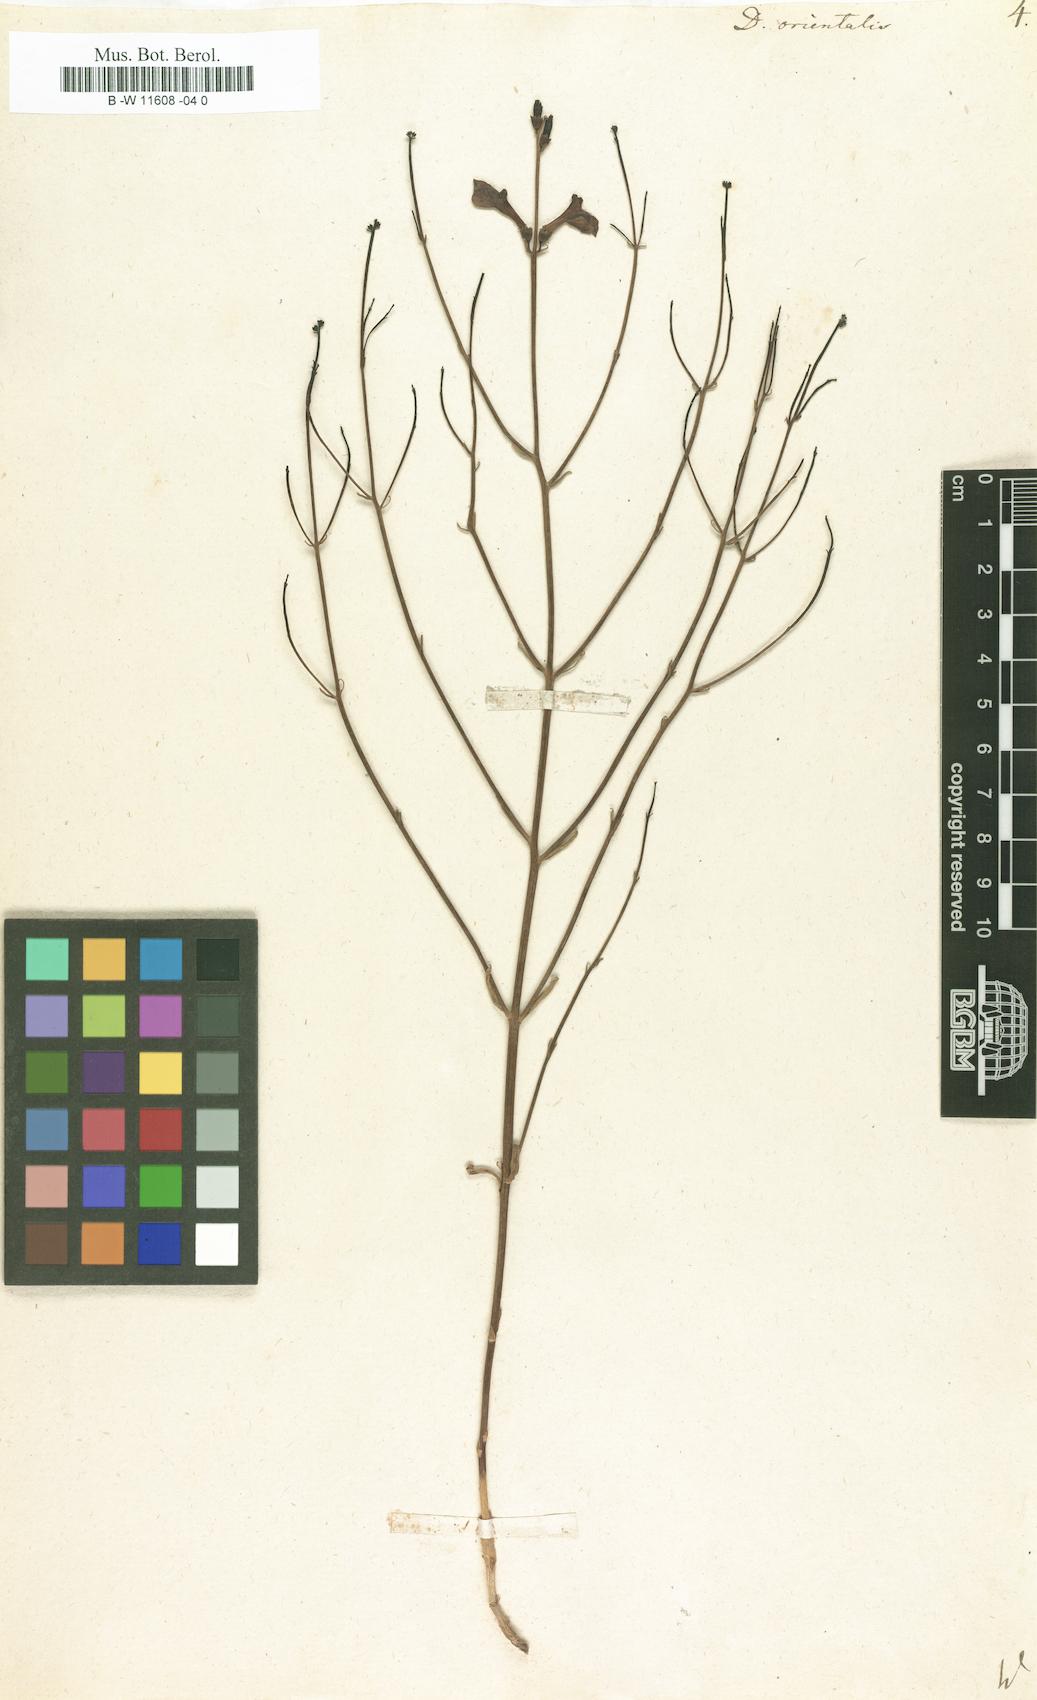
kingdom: Plantae
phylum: Tracheophyta
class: Magnoliopsida
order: Lamiales
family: Mazaceae
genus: Dodartia
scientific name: Dodartia orientalis
